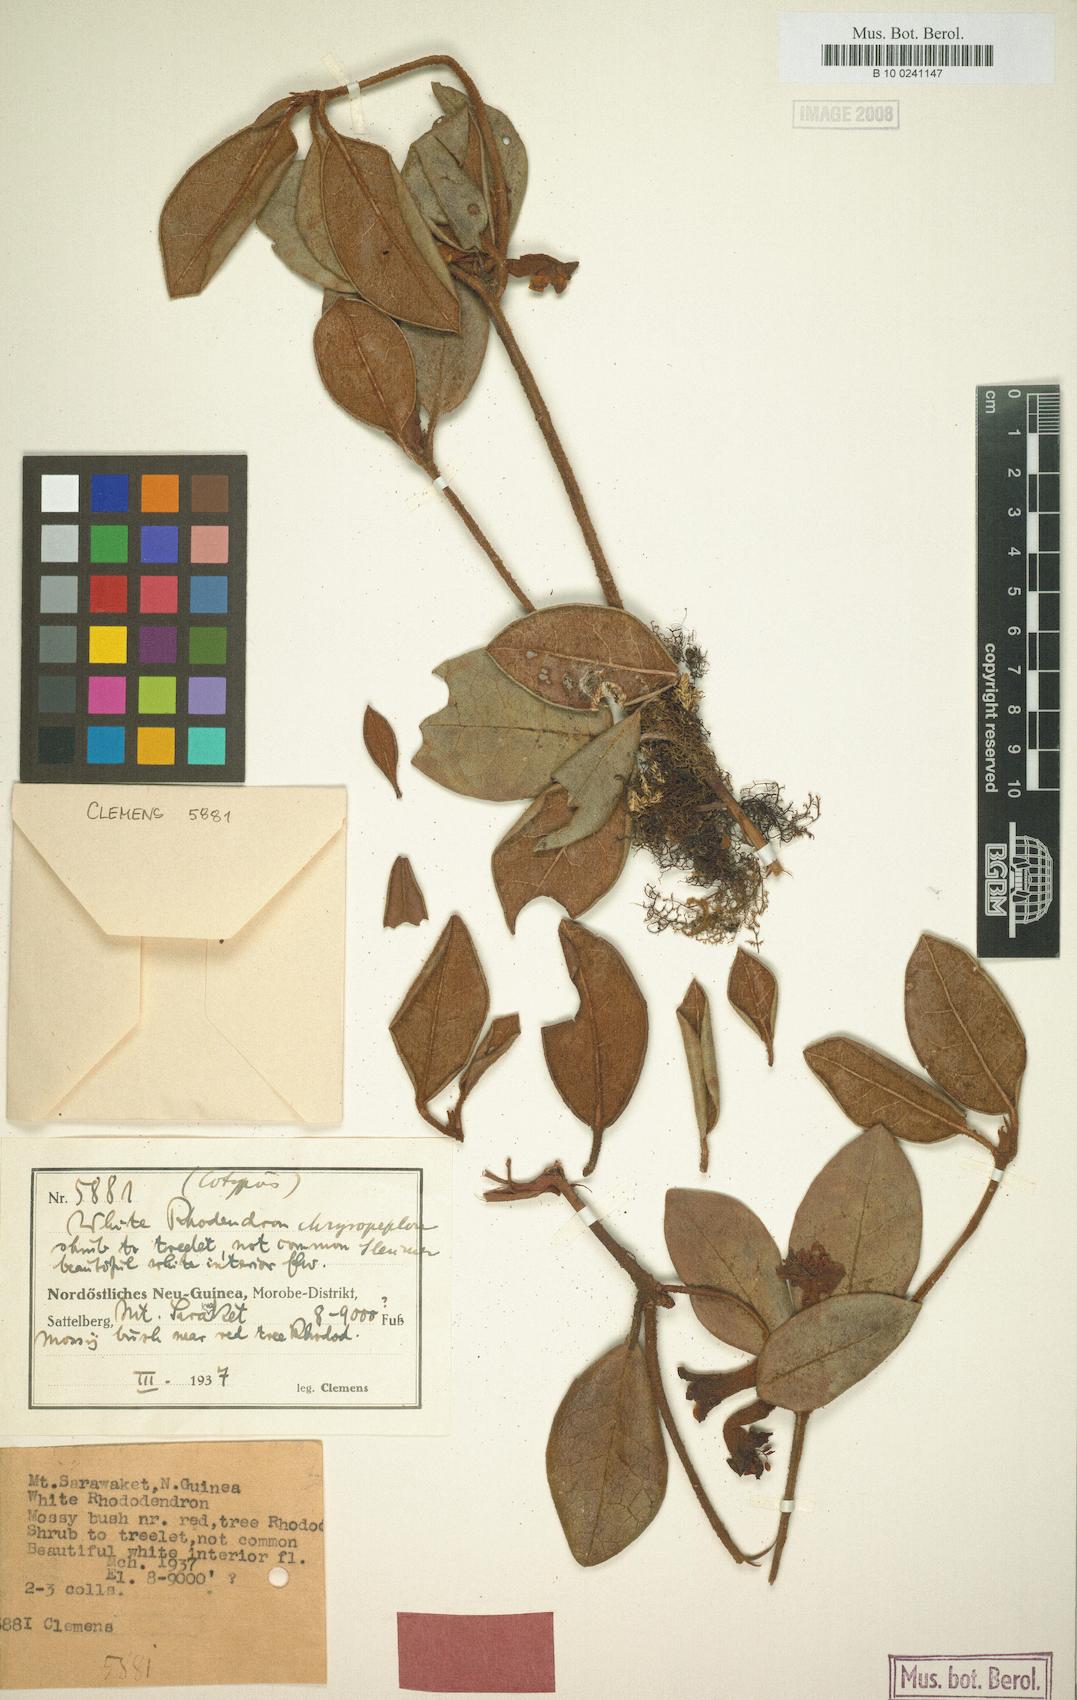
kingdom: Plantae
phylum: Tracheophyta
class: Magnoliopsida
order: Ericales
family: Ericaceae
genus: Rhododendron
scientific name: Rhododendron beyerinckianum
